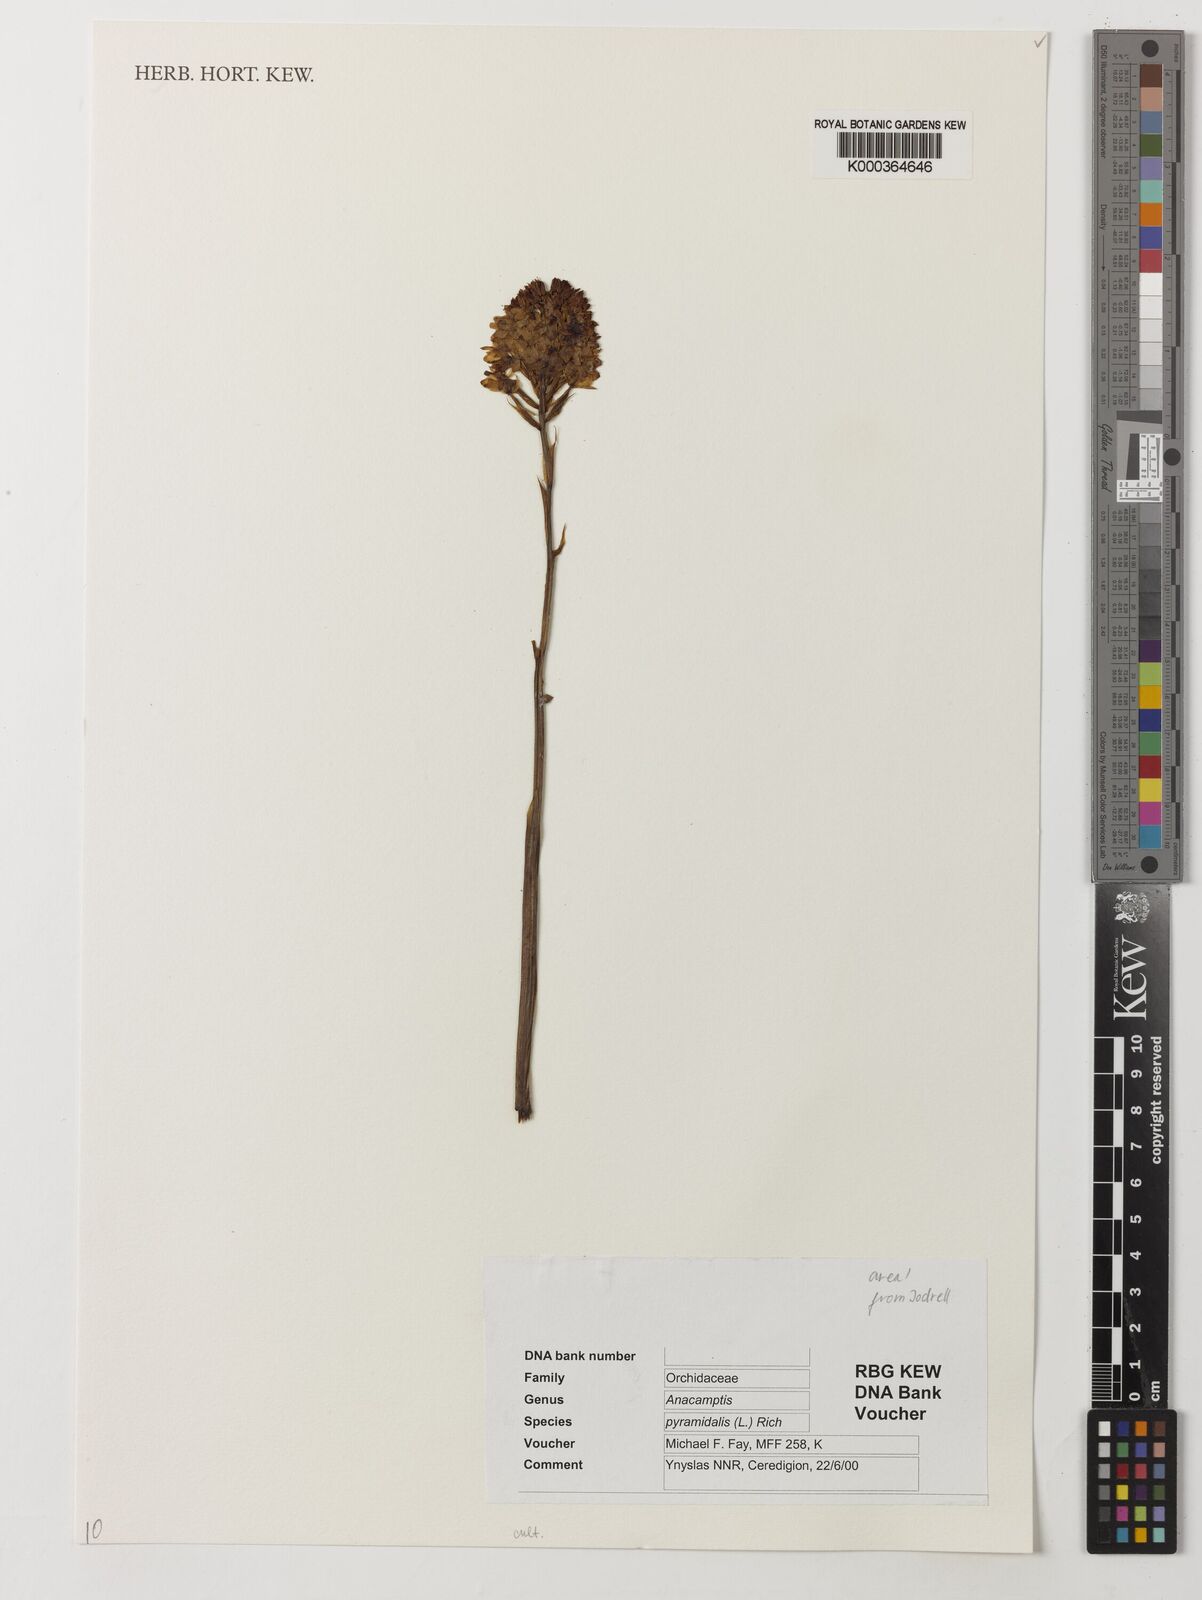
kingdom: Plantae
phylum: Tracheophyta
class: Liliopsida
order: Asparagales
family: Orchidaceae
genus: Anacamptis
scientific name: Anacamptis pyramidalis
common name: Pyramidal orchid
